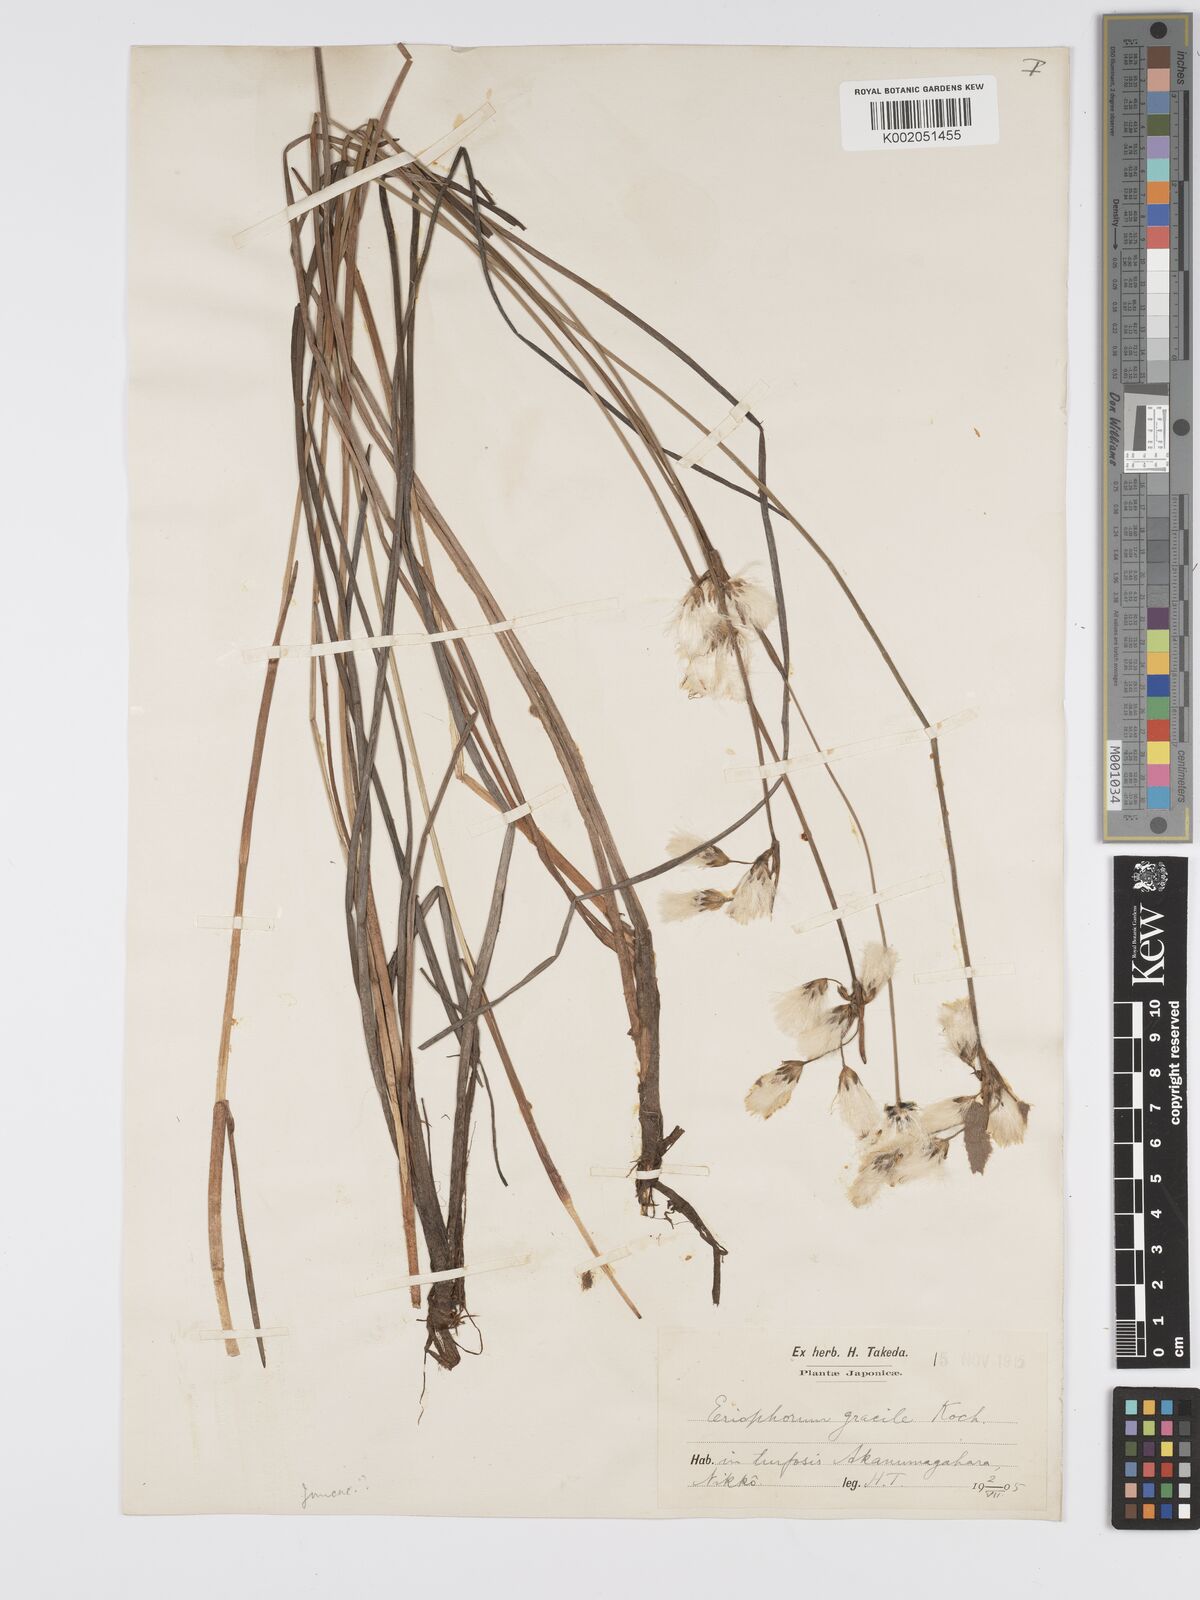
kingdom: Plantae
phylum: Tracheophyta
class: Liliopsida
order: Poales
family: Cyperaceae
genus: Eriophorum
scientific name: Eriophorum gracile
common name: Slender cottongrass
